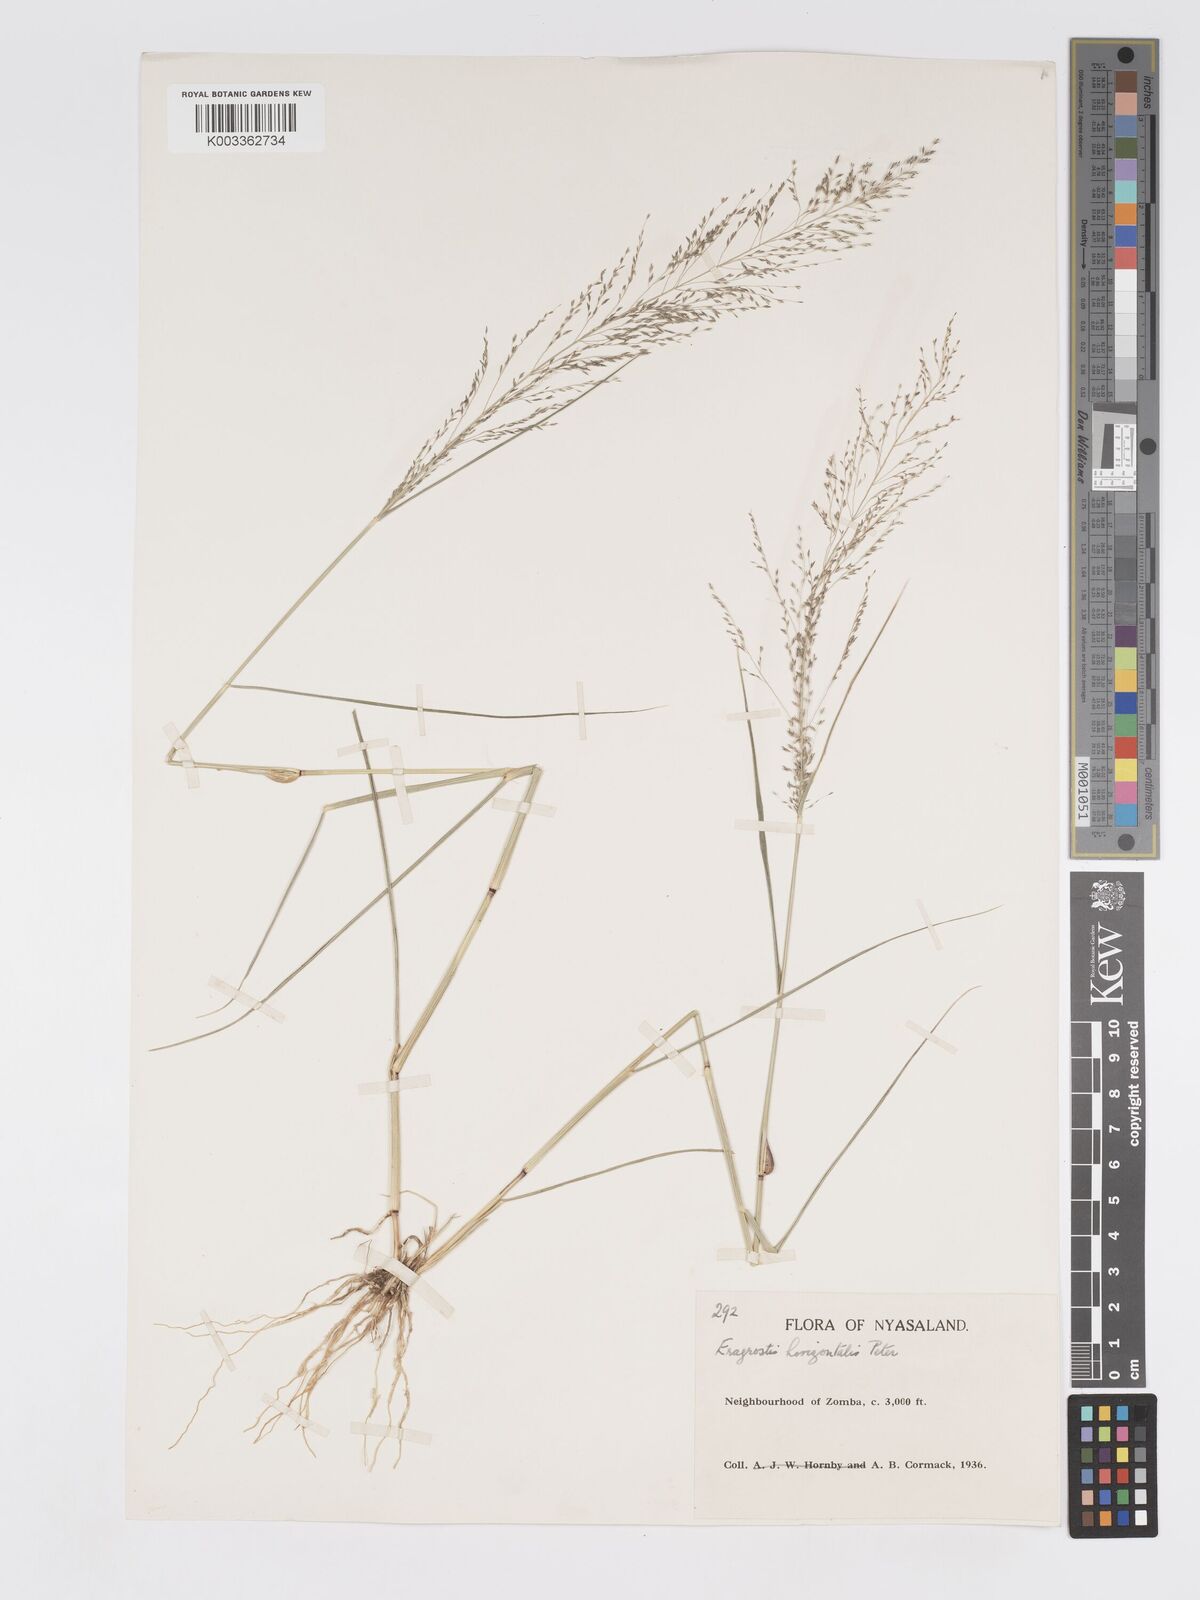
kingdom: Plantae
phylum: Tracheophyta
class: Liliopsida
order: Poales
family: Poaceae
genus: Eragrostis
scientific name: Eragrostis cylindriflora
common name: Cylinderflower lovegrass
